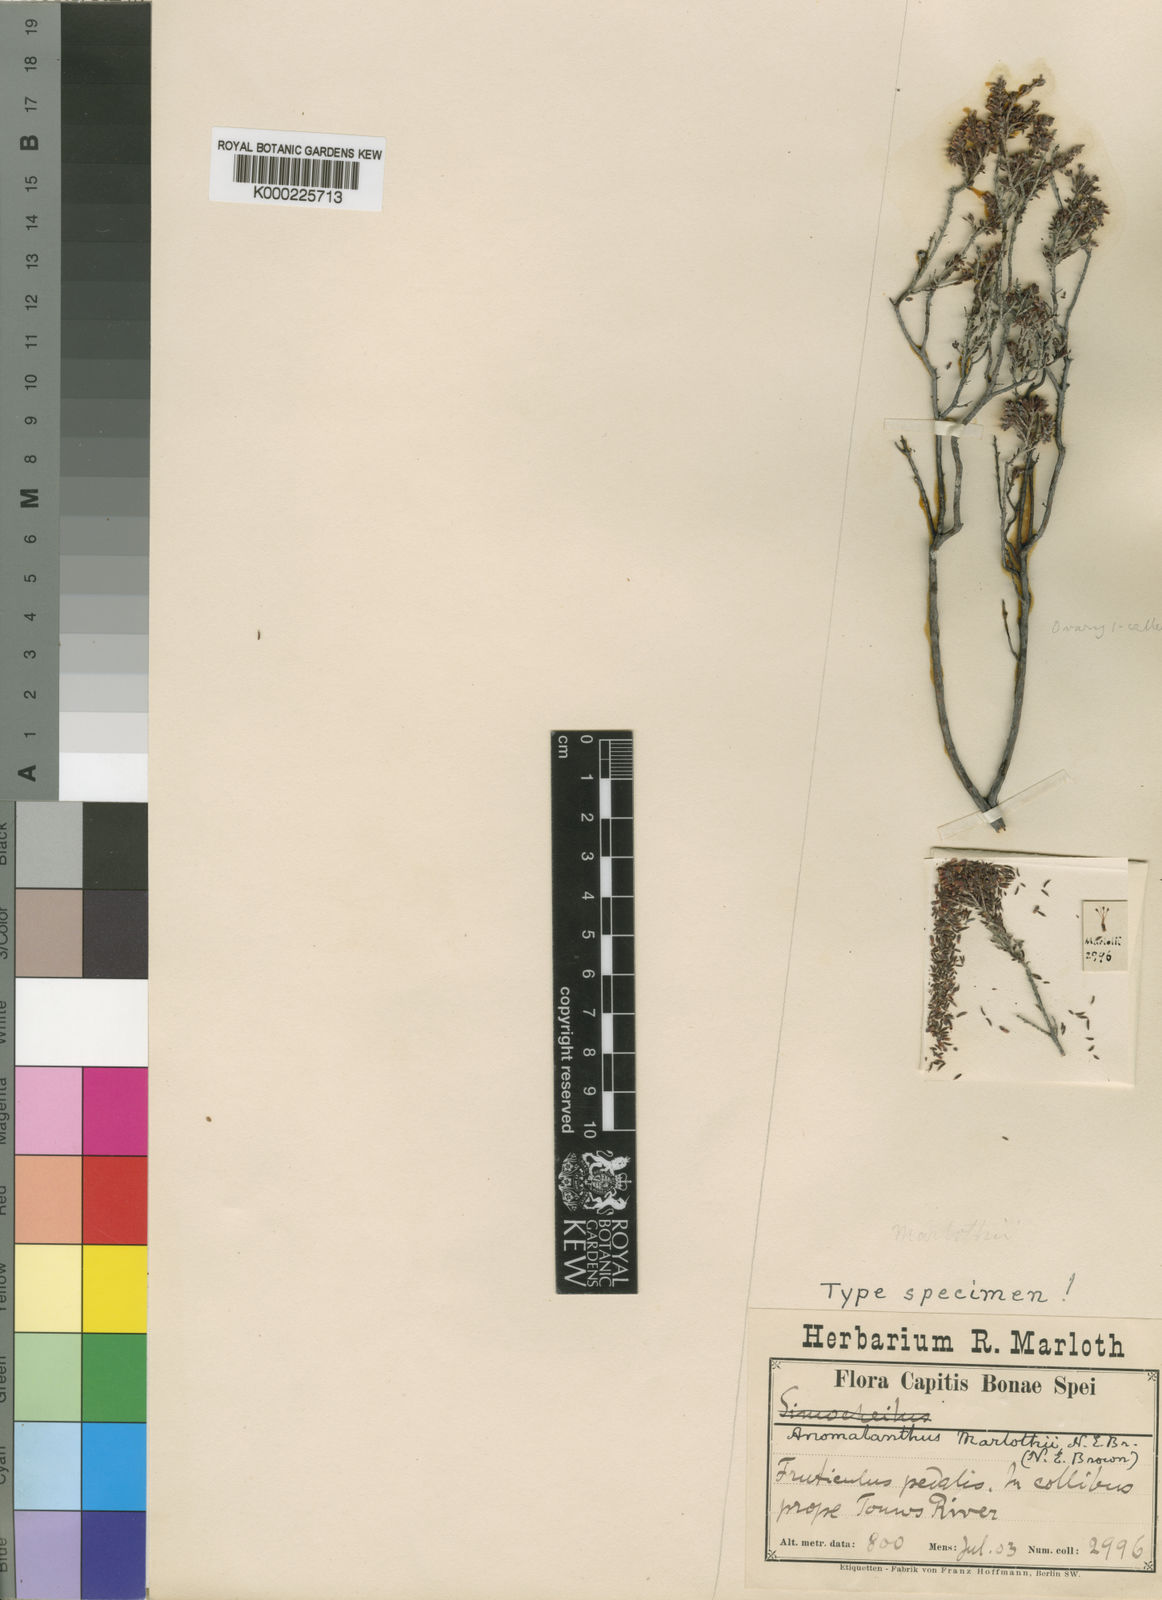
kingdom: Plantae
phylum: Tracheophyta
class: Magnoliopsida
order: Ericales
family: Ericaceae
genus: Erica
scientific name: Erica anguliger
